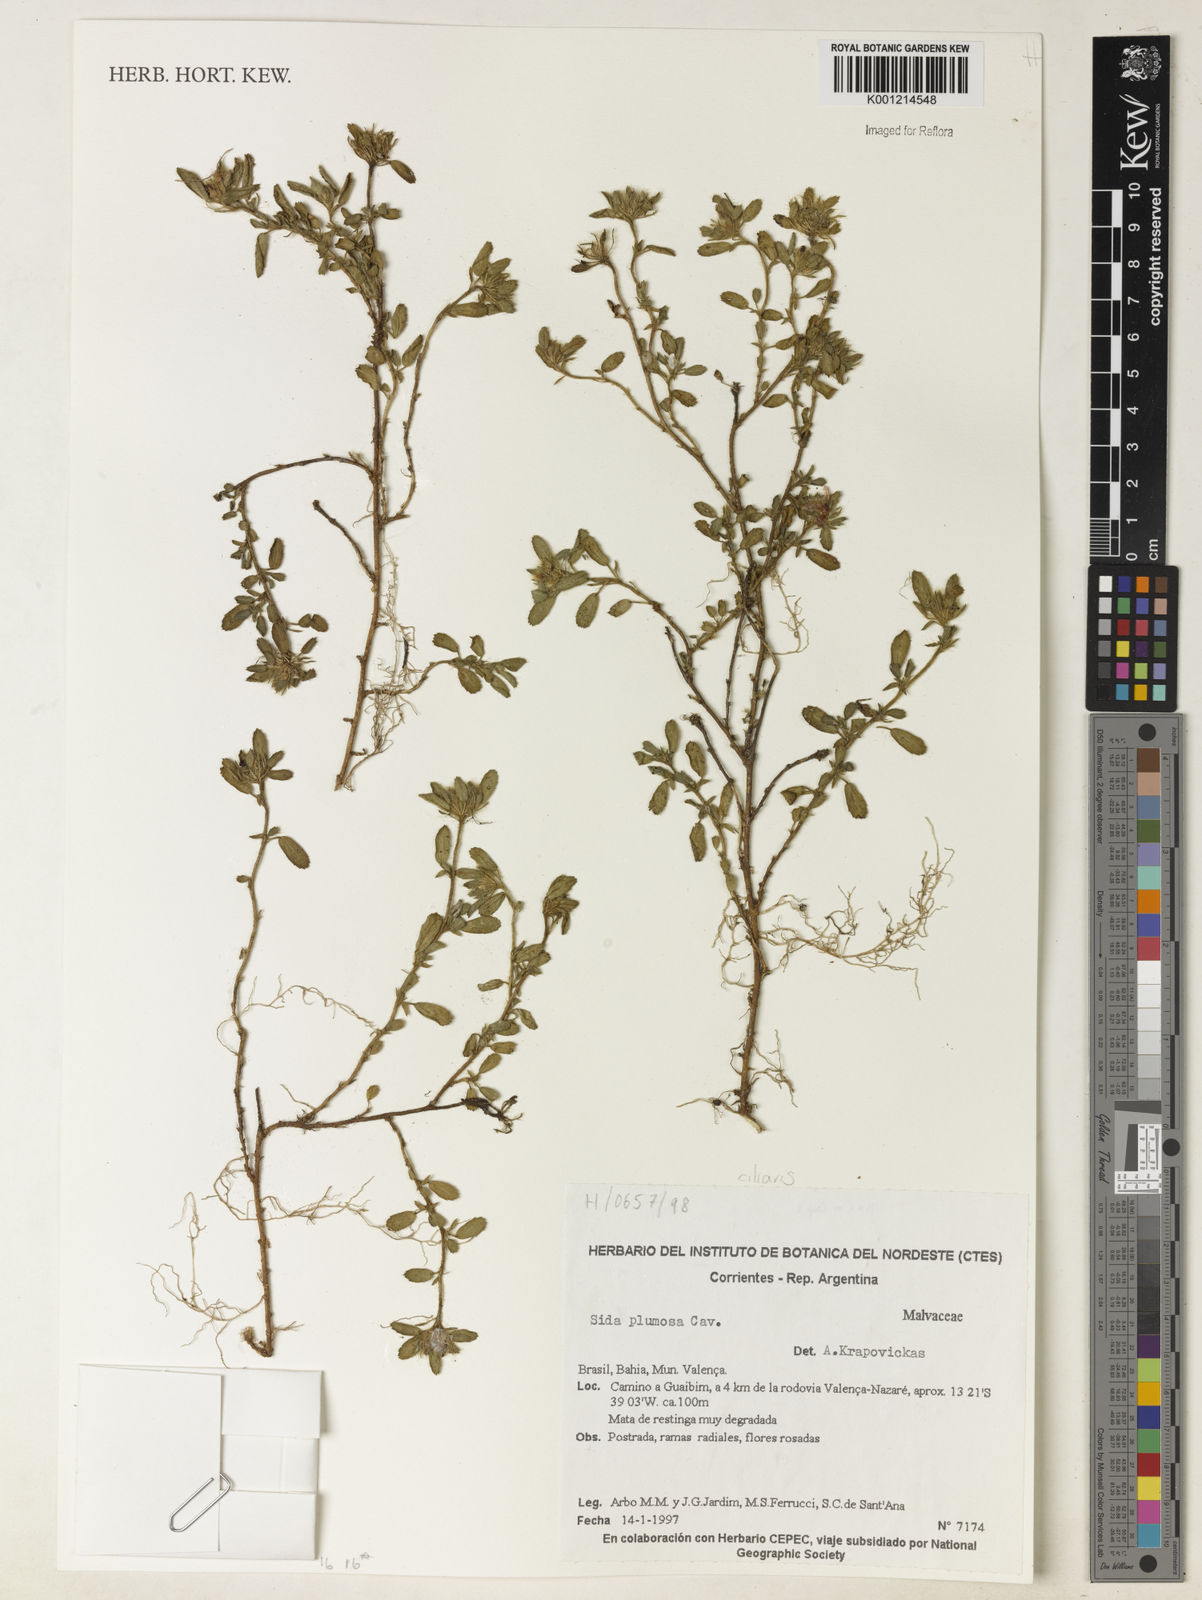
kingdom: Plantae
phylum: Tracheophyta
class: Magnoliopsida
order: Malvales
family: Malvaceae
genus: Sida
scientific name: Sida ciliaris
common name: Bracted fanpetals
